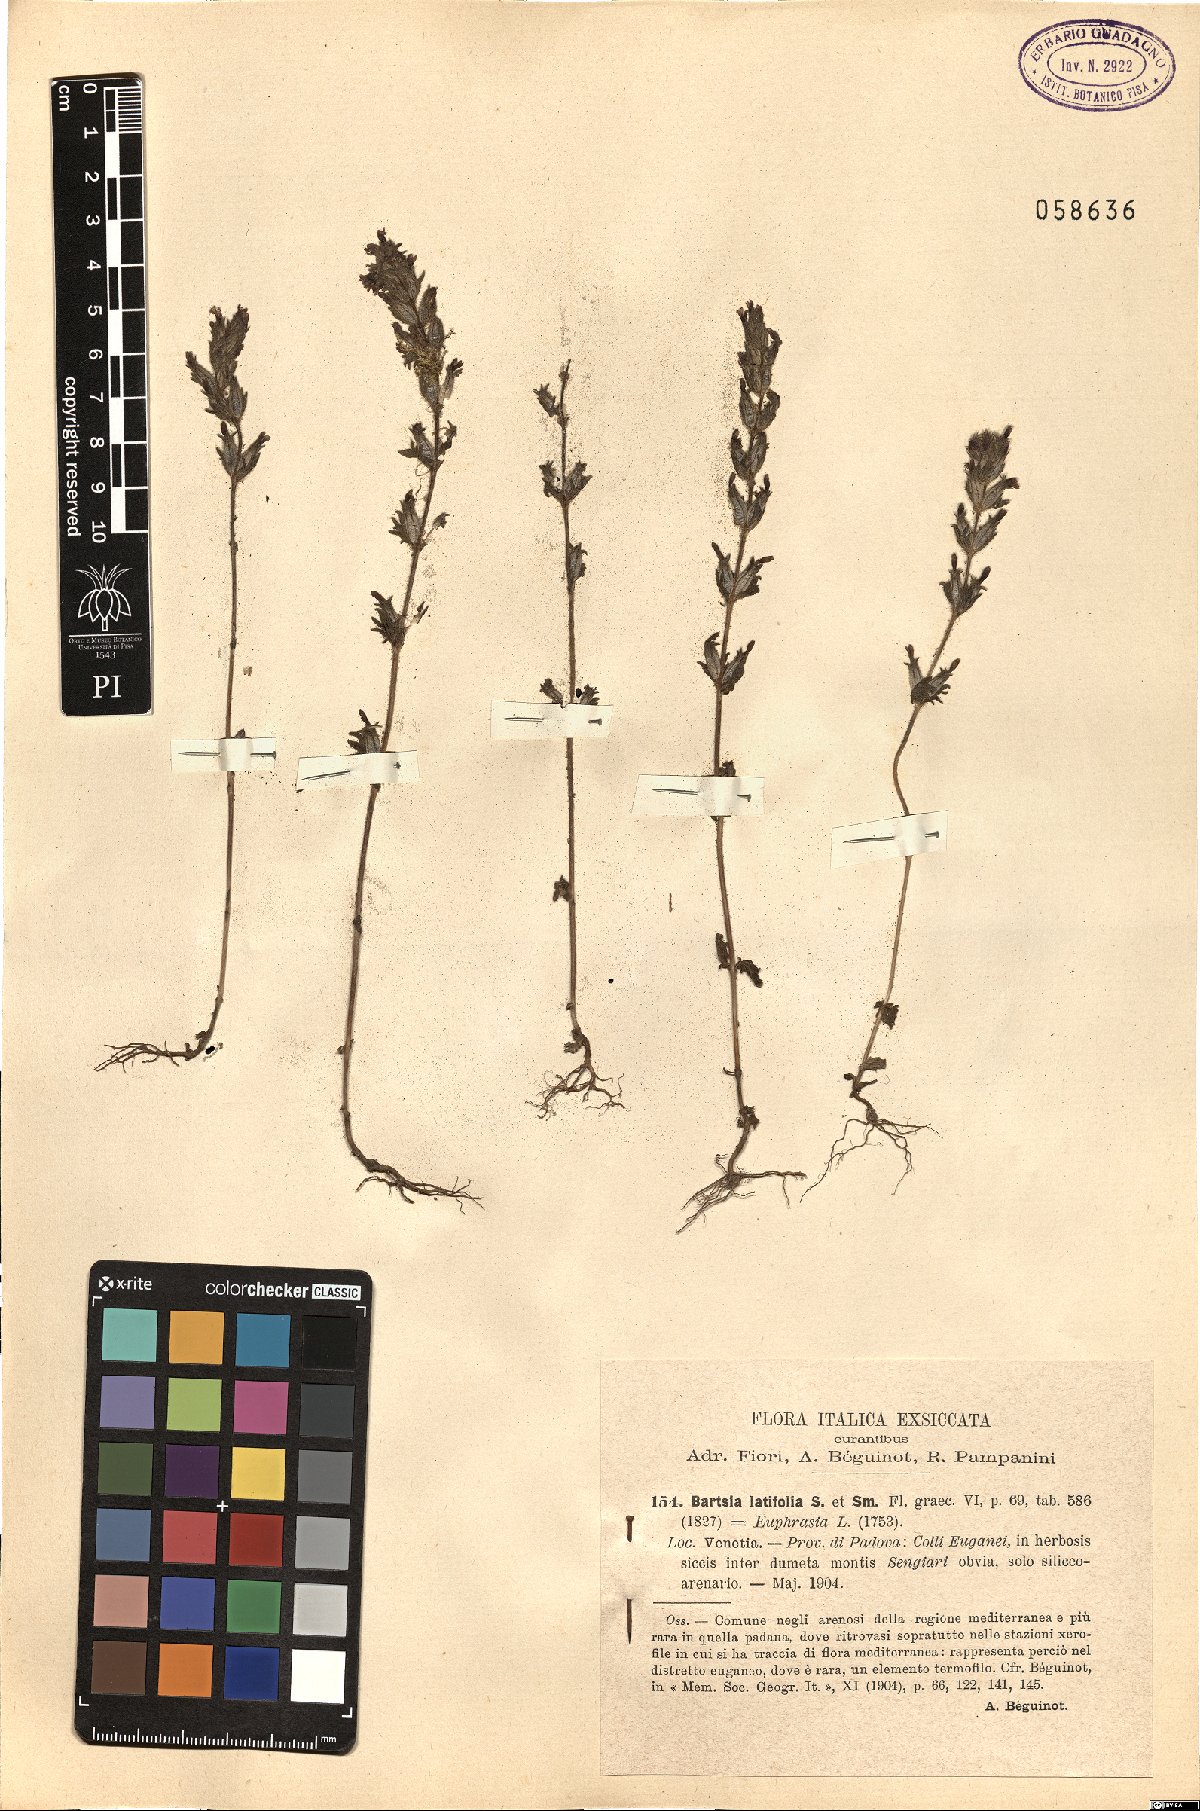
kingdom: Plantae
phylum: Tracheophyta
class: Magnoliopsida
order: Lamiales
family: Orobanchaceae
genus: Parentucellia
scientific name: Parentucellia latifolia
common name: Broadleaf glandweed
